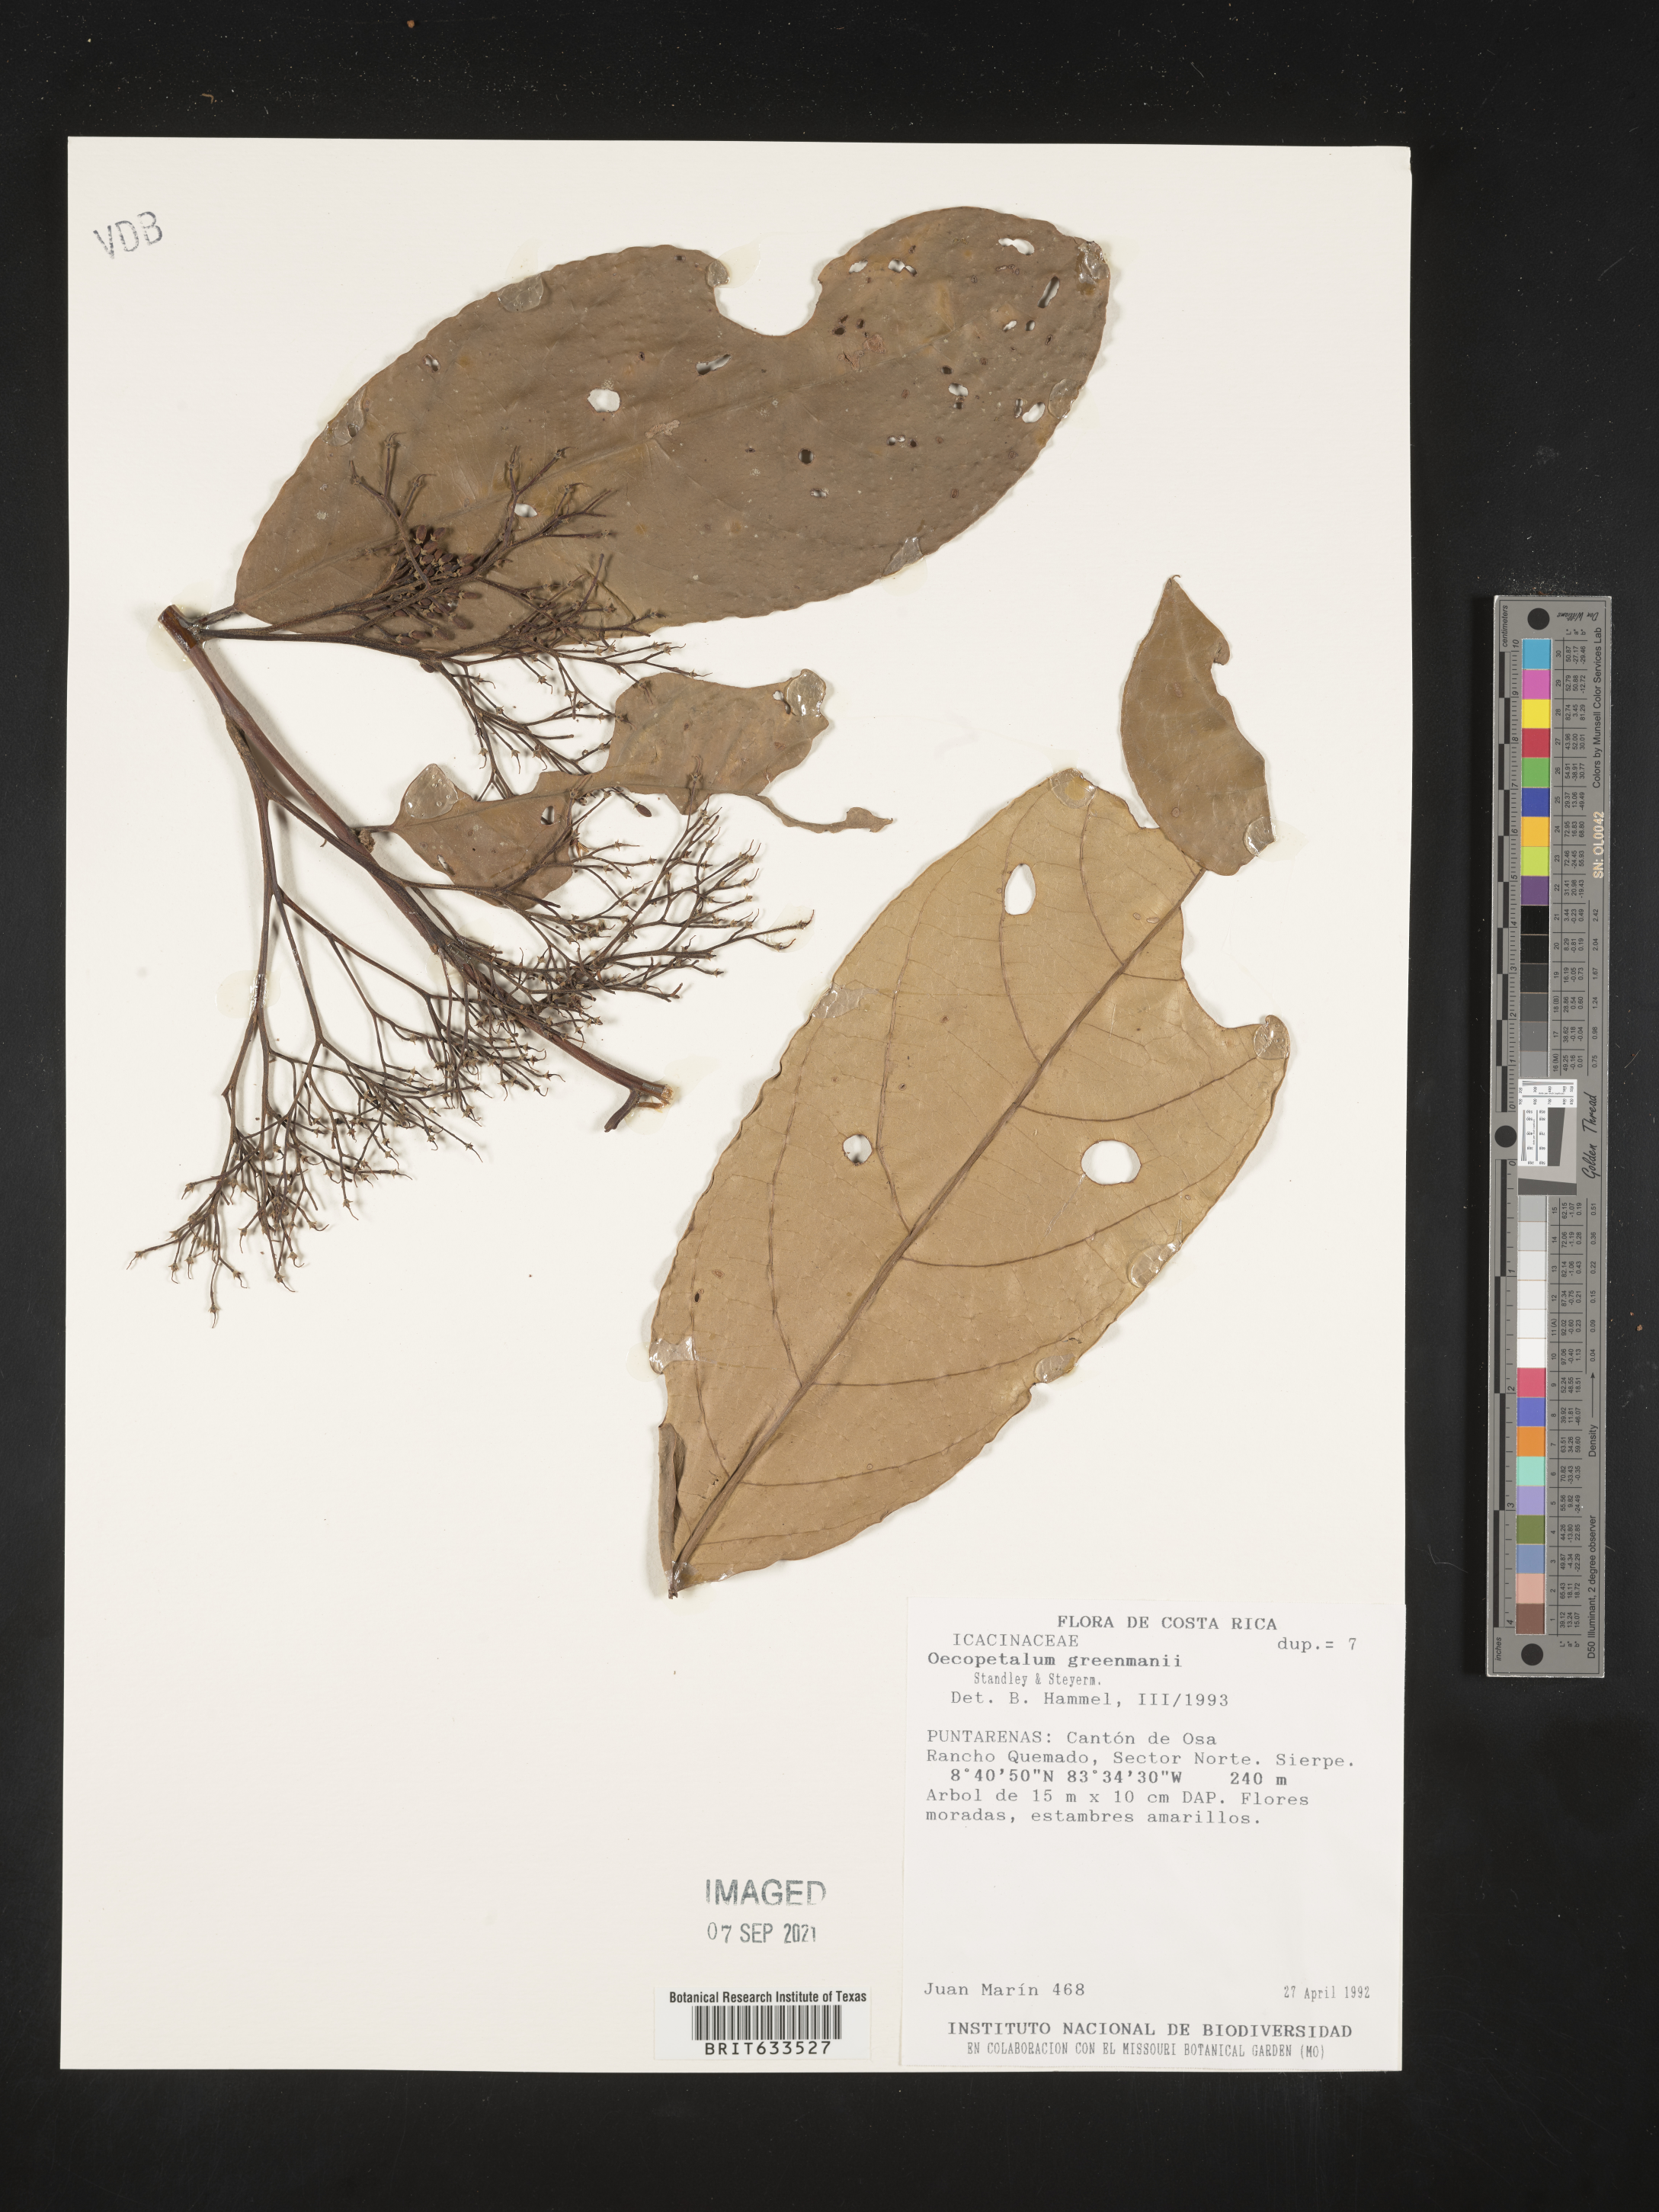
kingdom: Plantae
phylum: Tracheophyta
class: Magnoliopsida
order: Icacinales
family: Icacinaceae
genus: Oecopetalum
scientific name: Oecopetalum
